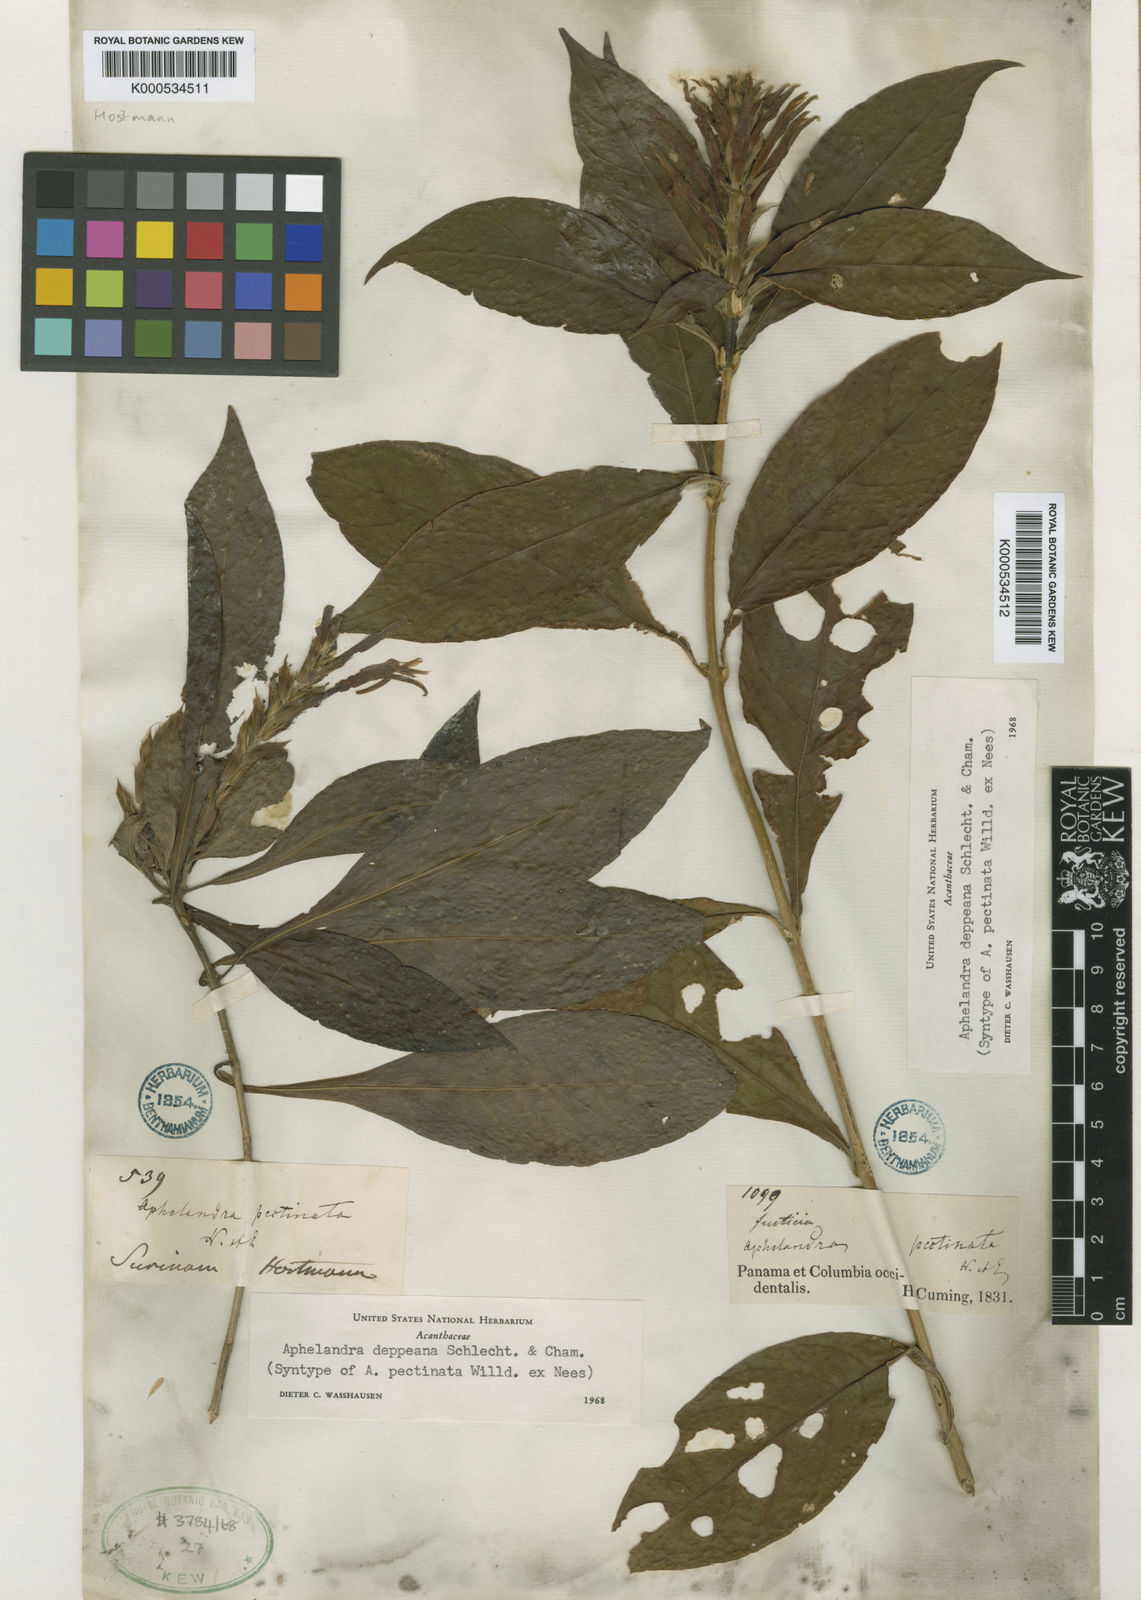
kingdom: Plantae
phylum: Tracheophyta
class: Magnoliopsida
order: Lamiales
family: Acanthaceae
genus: Aphelandra
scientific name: Aphelandra scabra
